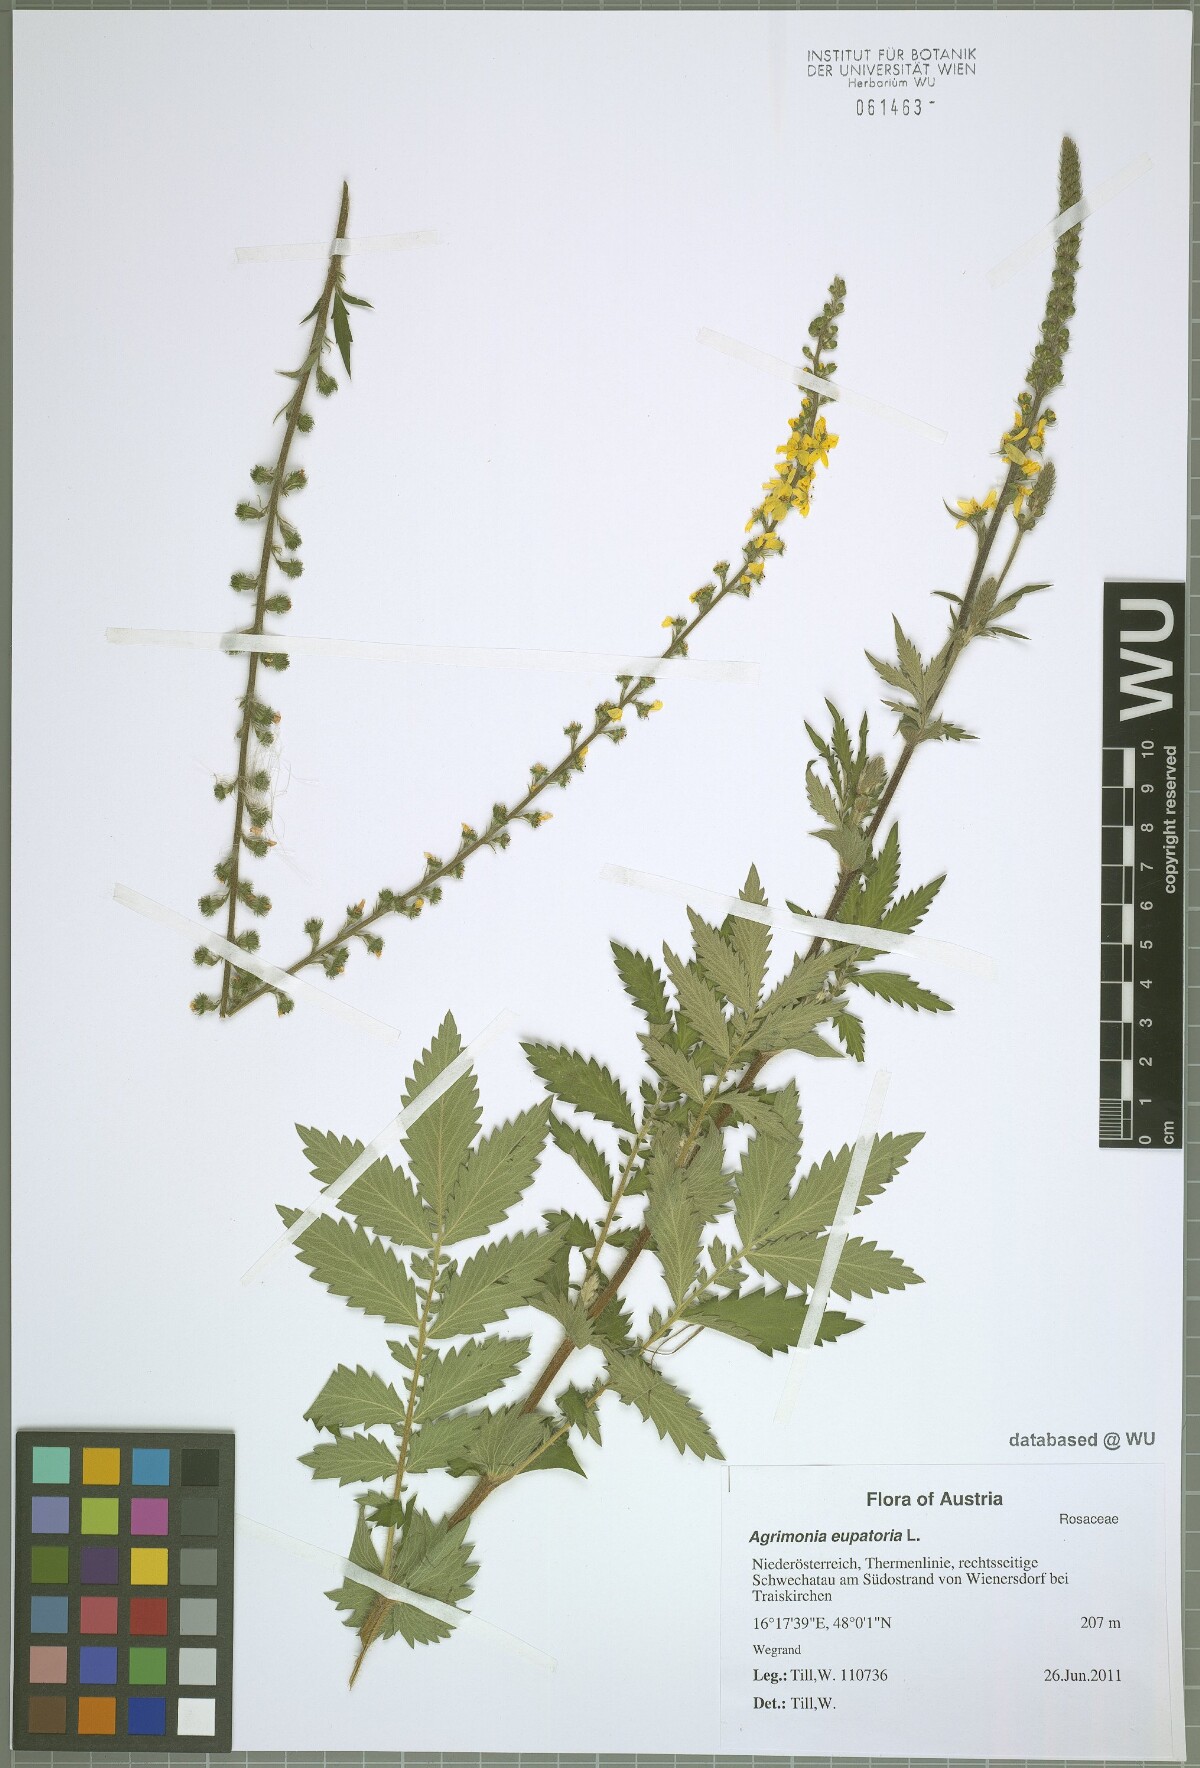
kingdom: Plantae
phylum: Tracheophyta
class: Magnoliopsida
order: Rosales
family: Rosaceae
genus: Agrimonia
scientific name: Agrimonia eupatoria
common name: Agrimony
